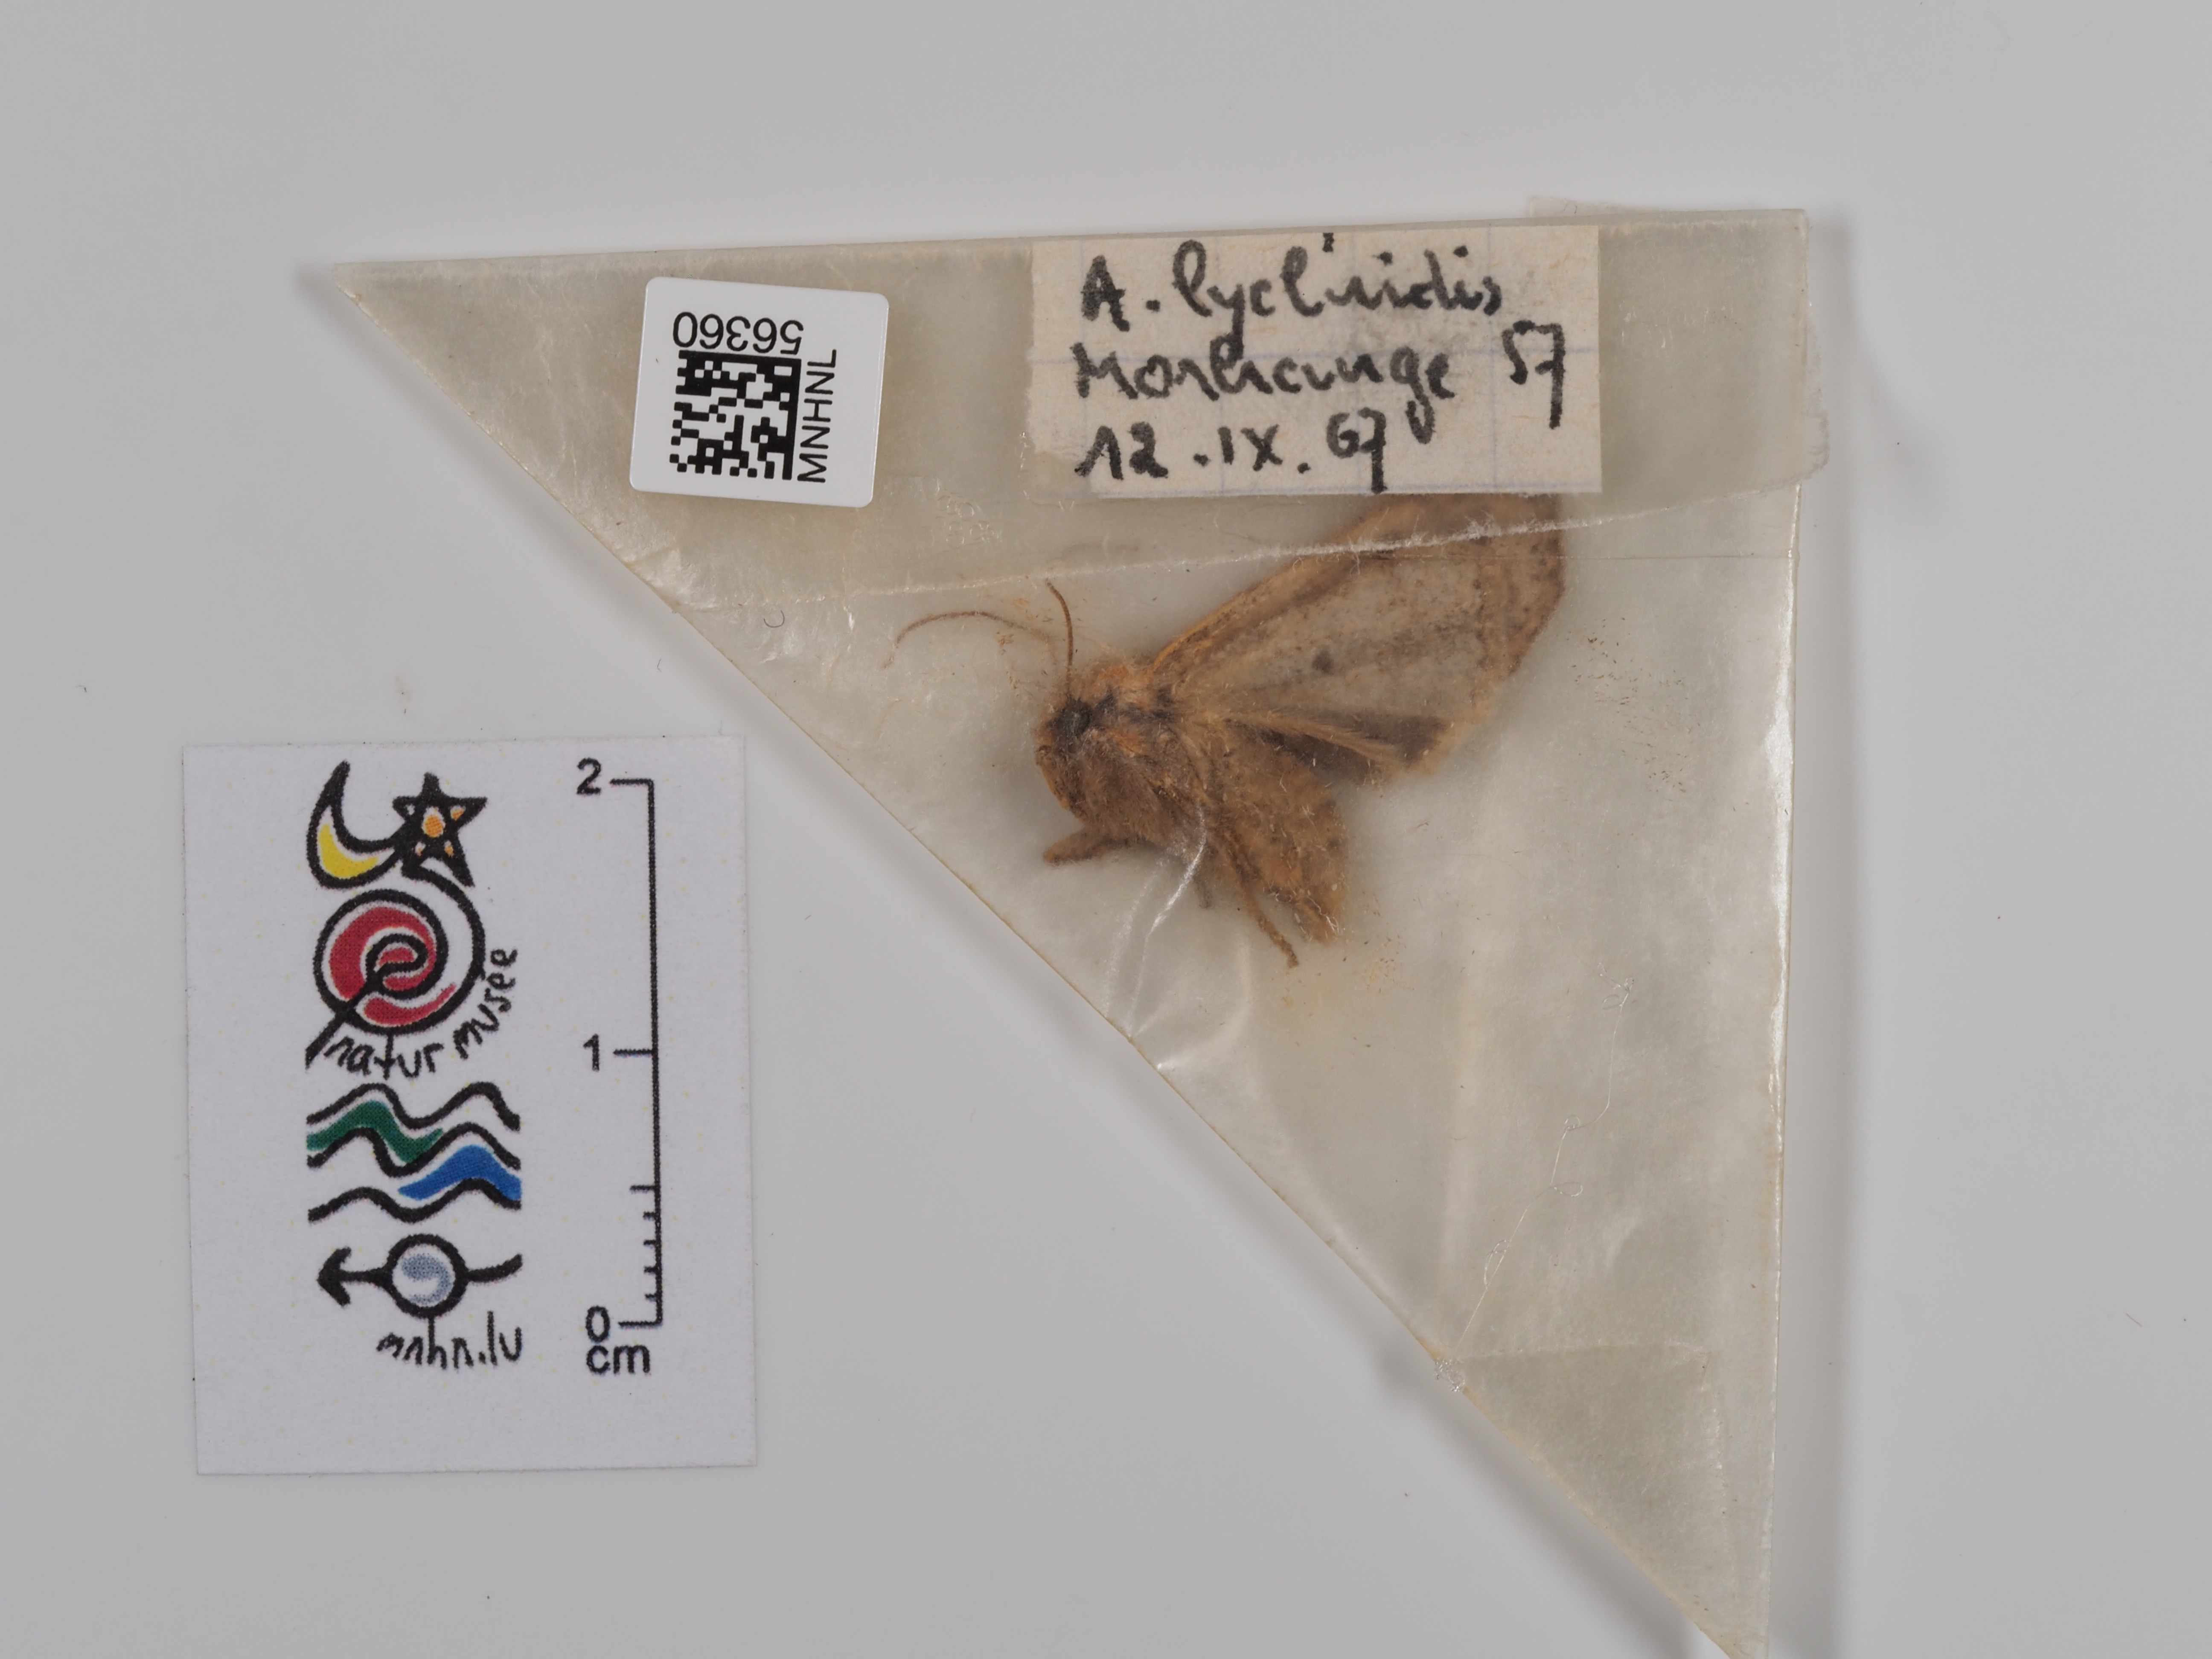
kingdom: Animalia
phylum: Arthropoda
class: Insecta
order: Lepidoptera
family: Noctuidae
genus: Agrochola
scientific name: Agrochola lychnidis
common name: Beaded chestnut
